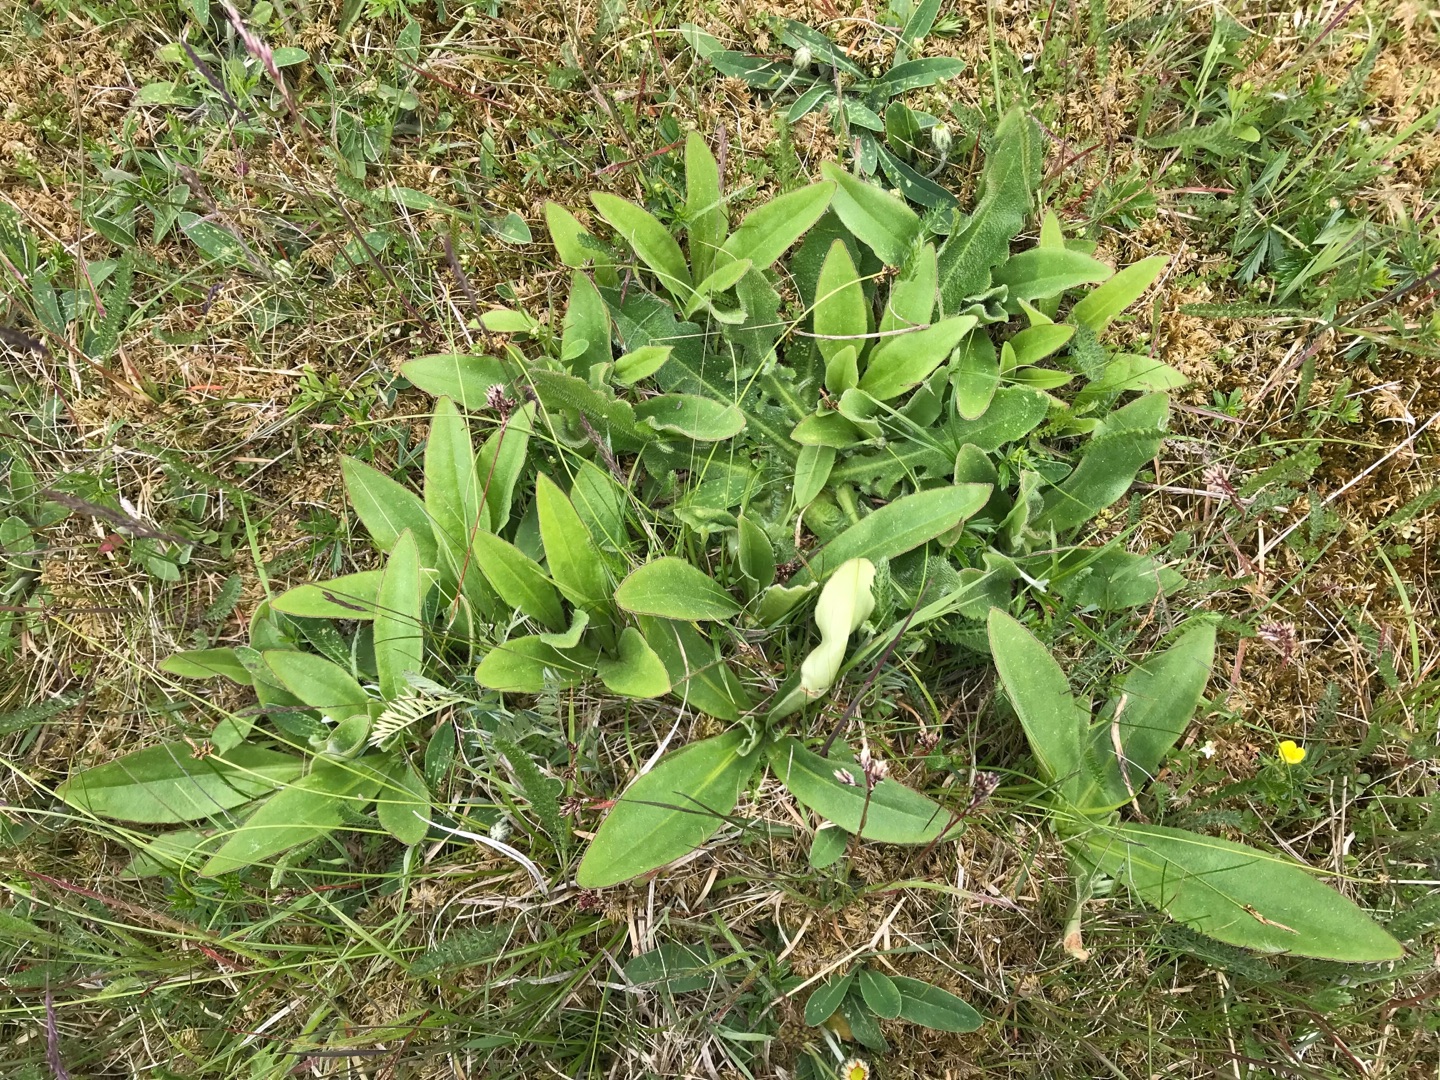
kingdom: Plantae
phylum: Tracheophyta
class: Magnoliopsida
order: Asterales
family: Asteraceae
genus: Arnica
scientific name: Arnica montana
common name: Guldblomme
